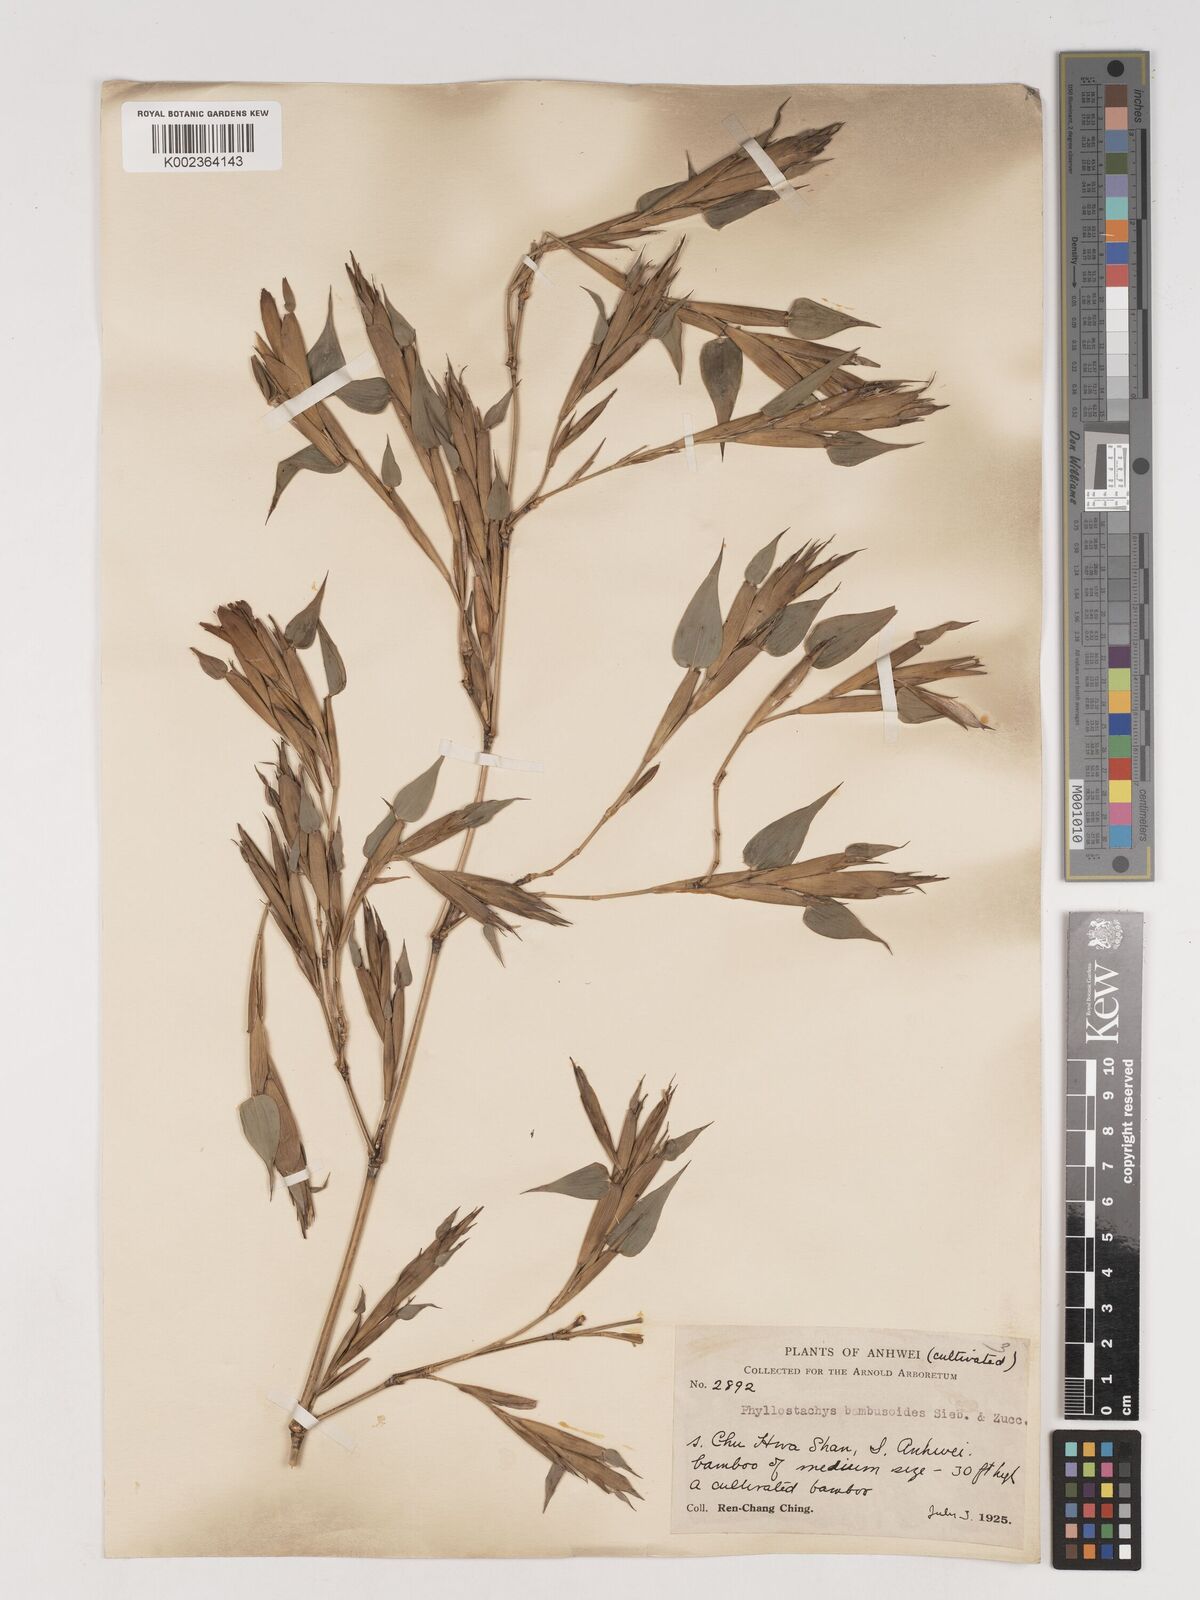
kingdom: Plantae
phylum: Tracheophyta
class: Liliopsida
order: Poales
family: Poaceae
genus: Phyllostachys
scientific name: Phyllostachys reticulata
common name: Bamboo
